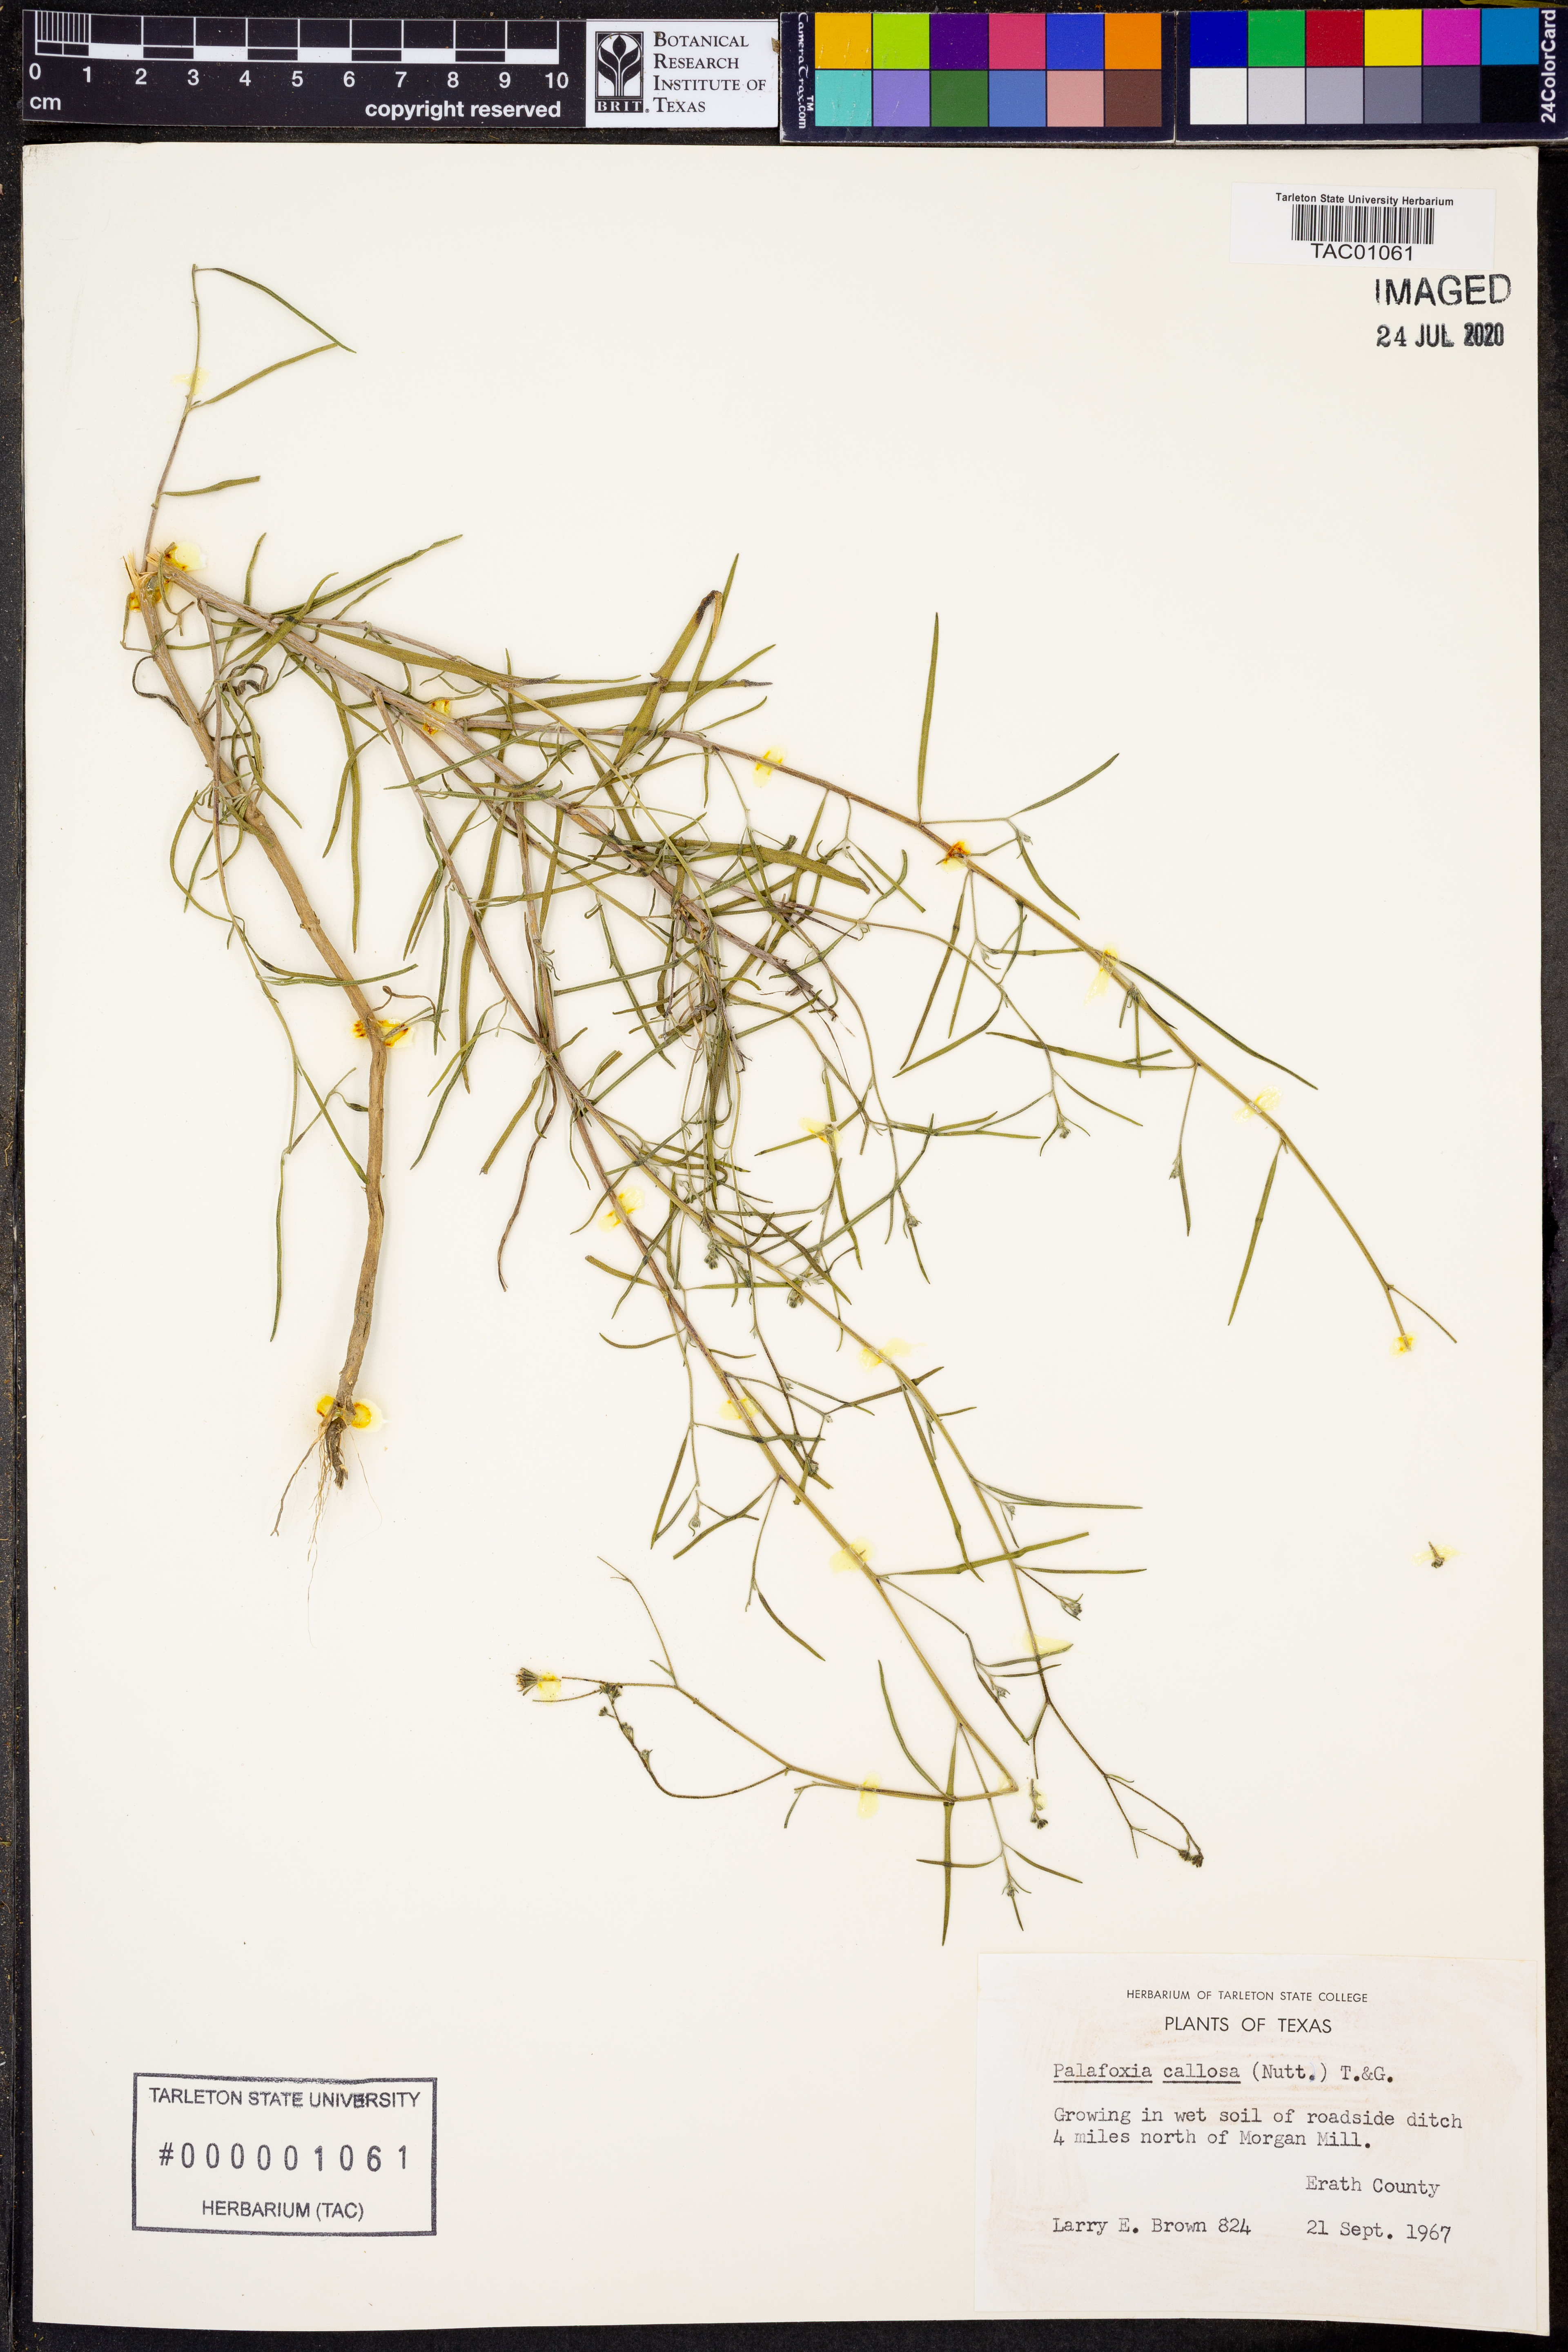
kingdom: Plantae
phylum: Tracheophyta
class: Magnoliopsida
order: Asterales
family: Asteraceae
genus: Palafoxia
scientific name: Palafoxia callosa
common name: Small palafox
